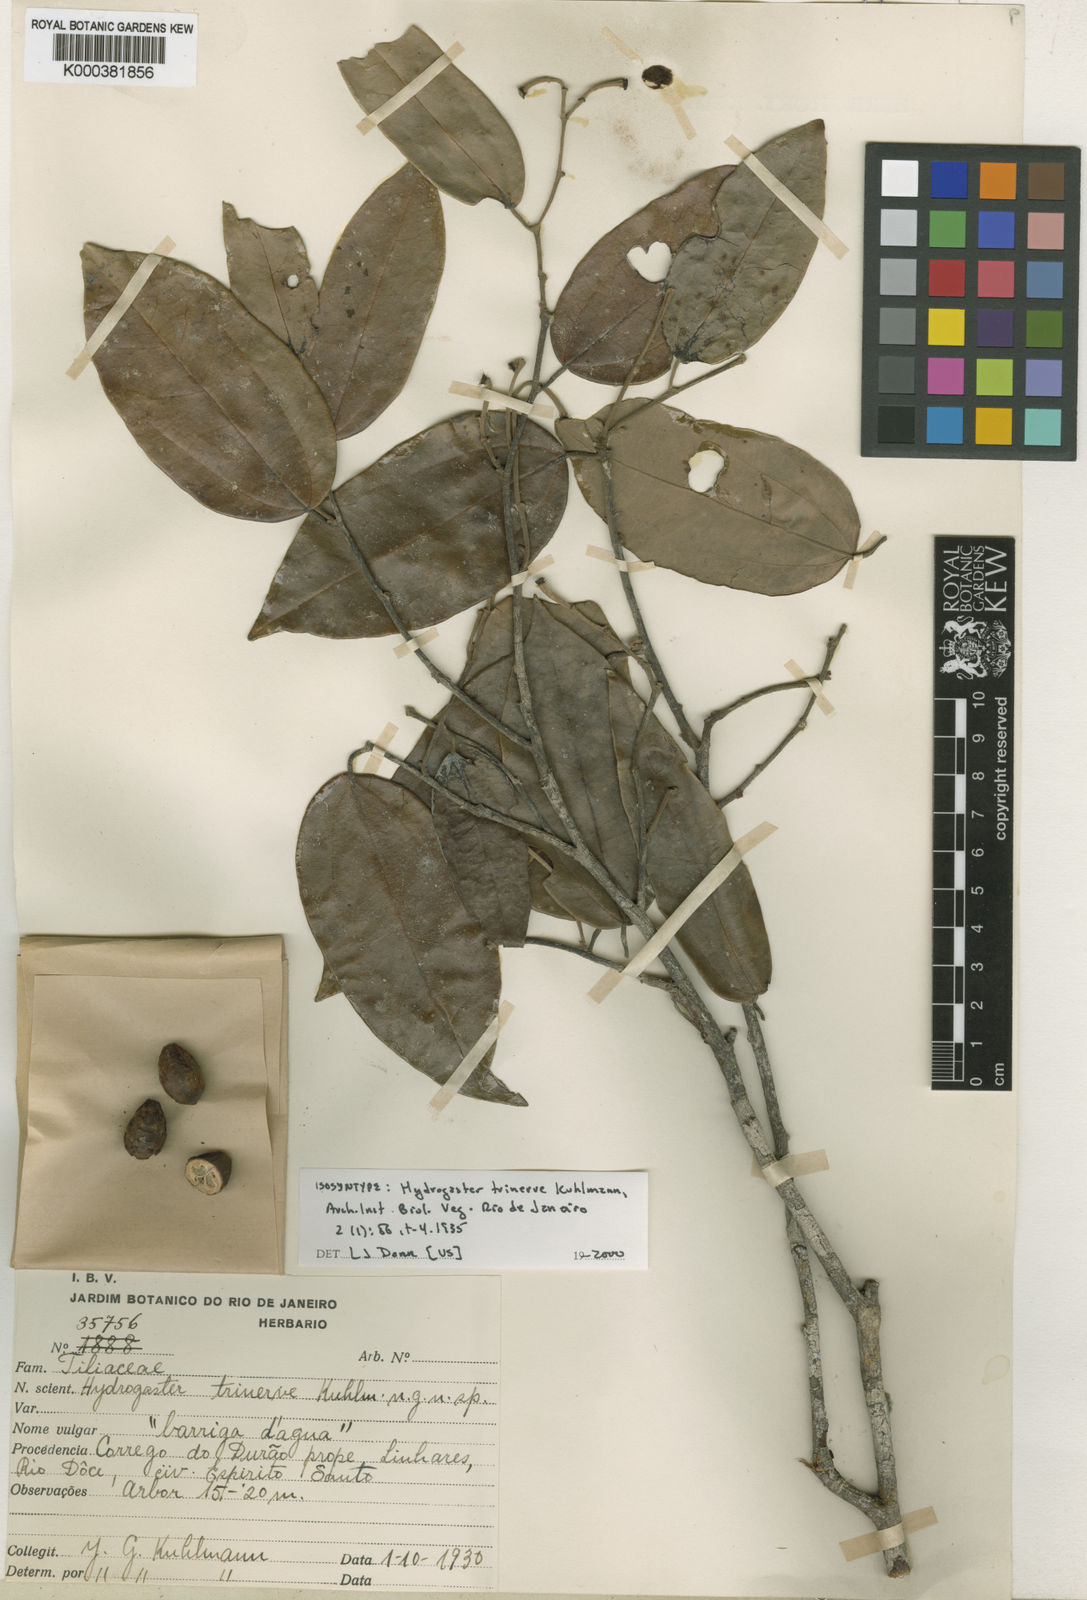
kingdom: Plantae
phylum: Tracheophyta
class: Magnoliopsida
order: Malvales
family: Malvaceae
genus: Hydrogaster
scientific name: Hydrogaster
